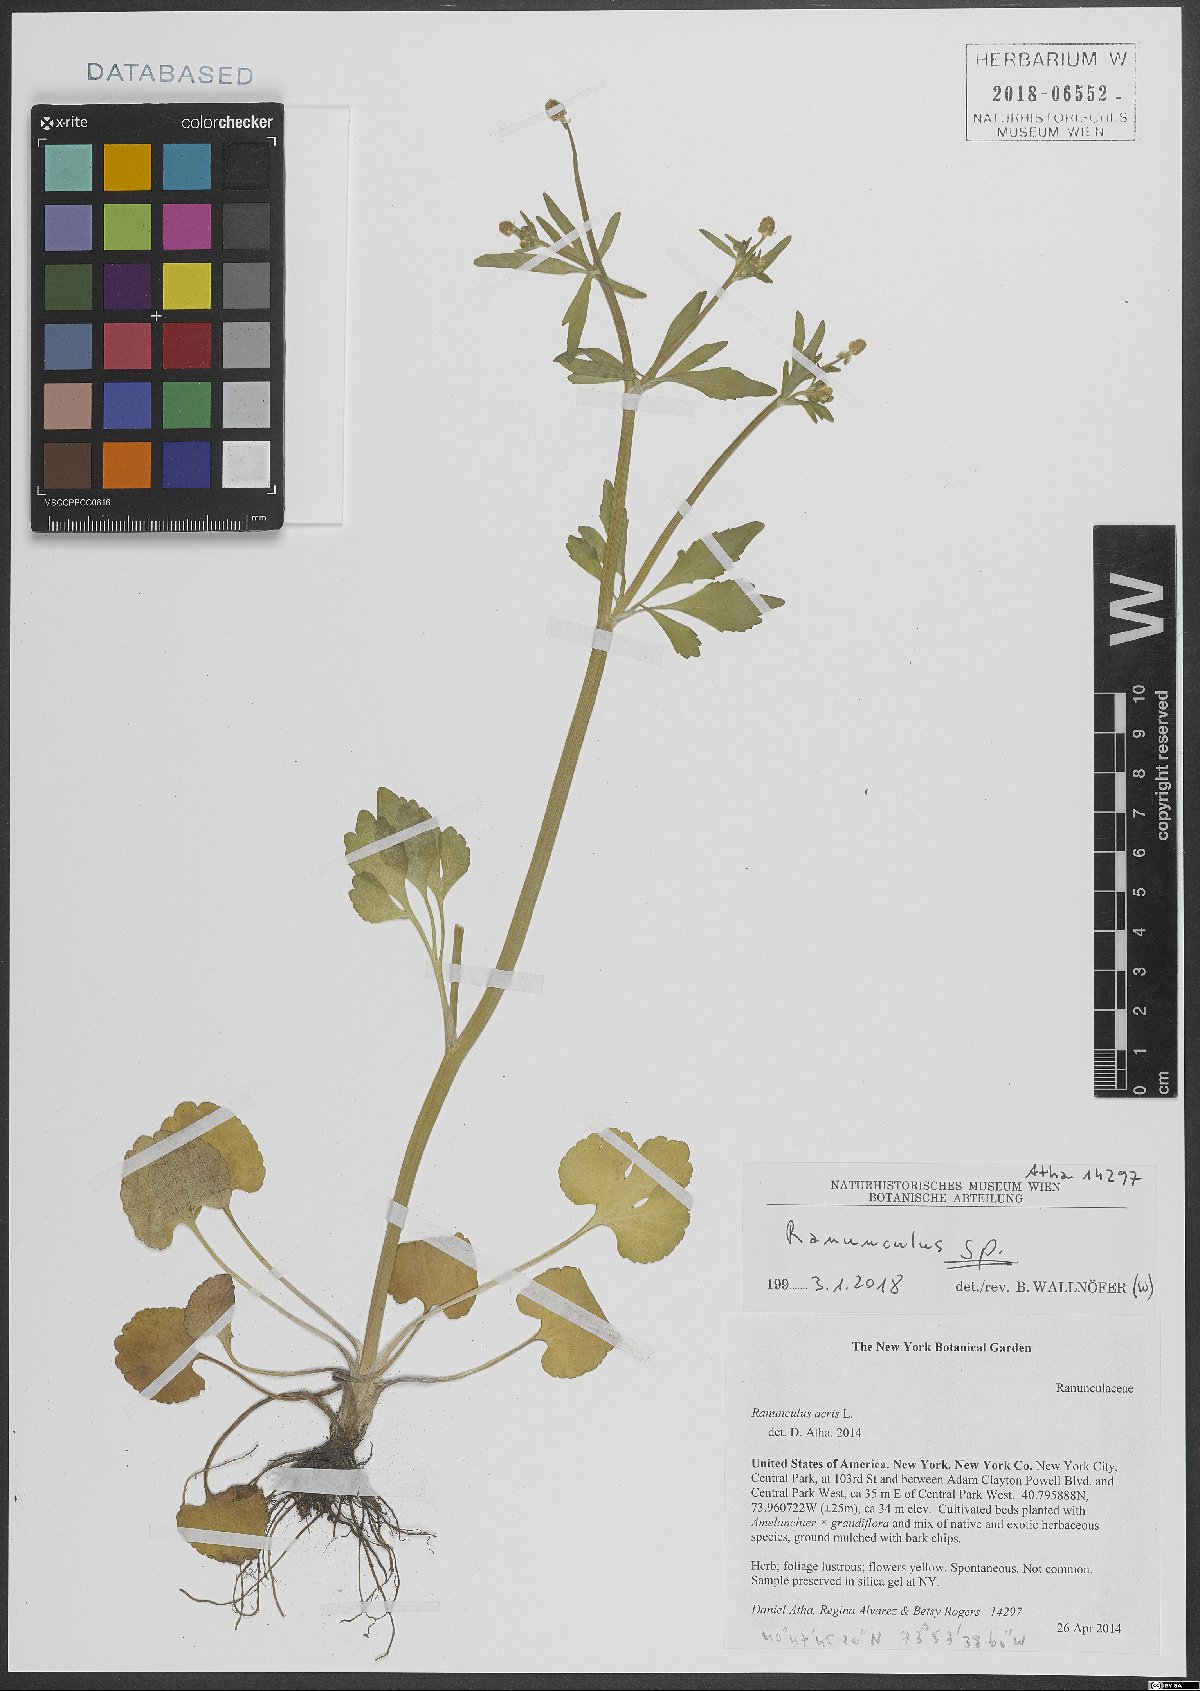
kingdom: Plantae
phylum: Tracheophyta
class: Magnoliopsida
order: Ranunculales
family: Ranunculaceae
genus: Ranunculus
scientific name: Ranunculus
